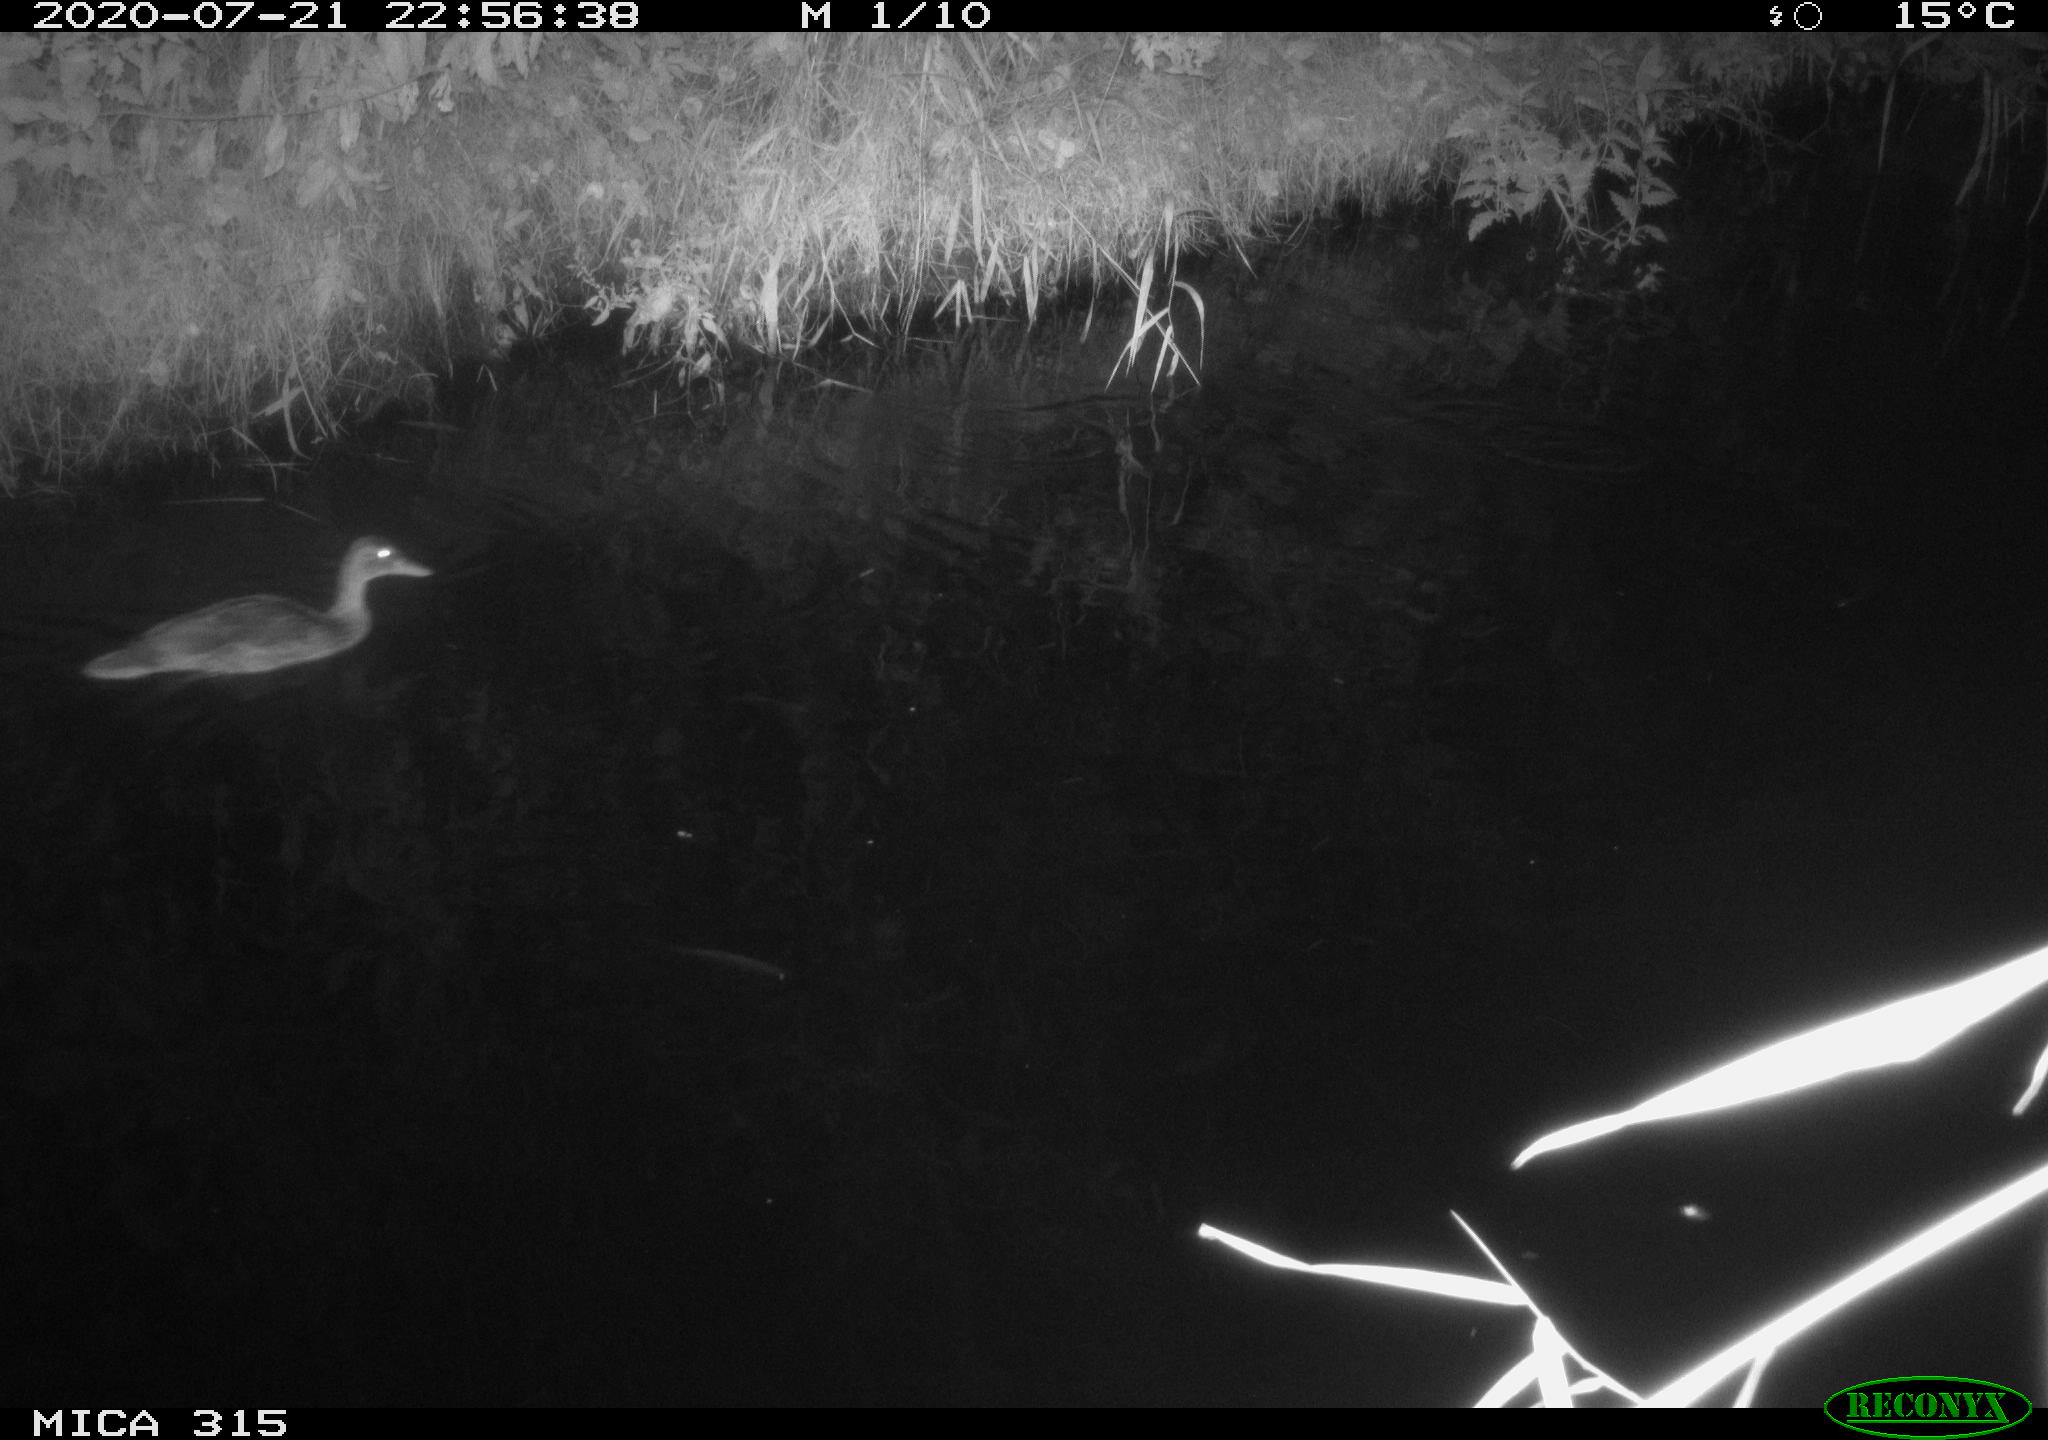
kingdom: Animalia
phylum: Chordata
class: Aves
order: Anseriformes
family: Anatidae
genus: Anas
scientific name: Anas platyrhynchos
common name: Mallard
